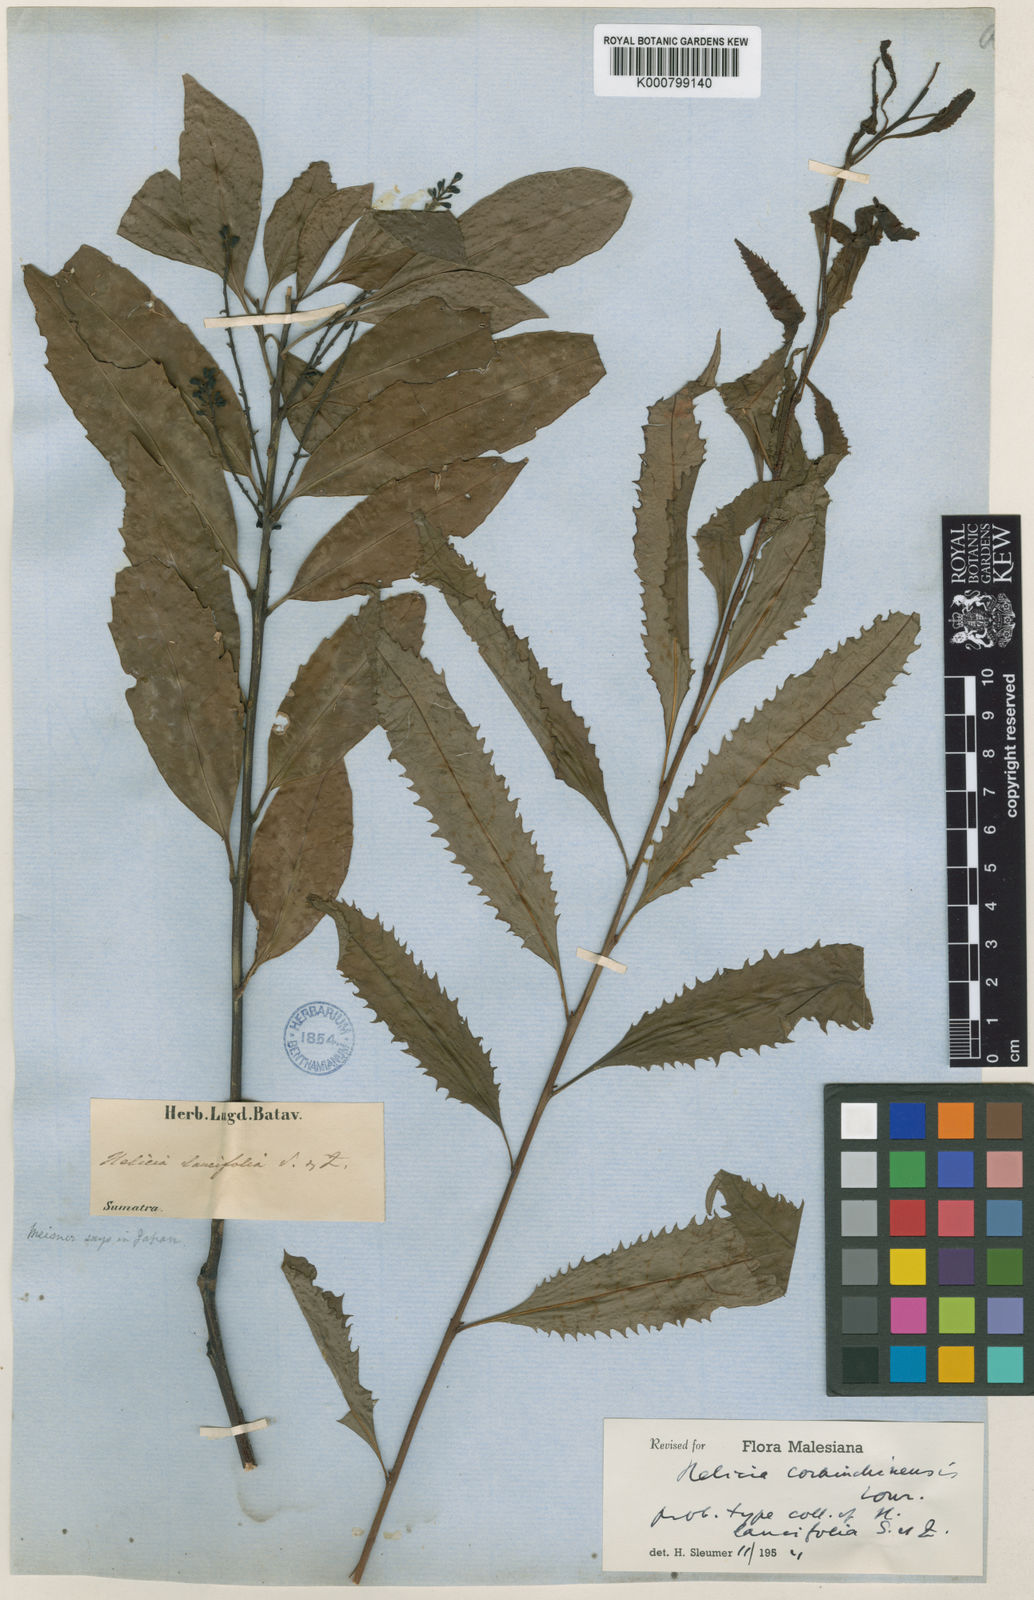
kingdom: Plantae
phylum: Tracheophyta
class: Magnoliopsida
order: Proteales
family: Proteaceae
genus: Helicia
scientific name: Helicia kwangtungensis
